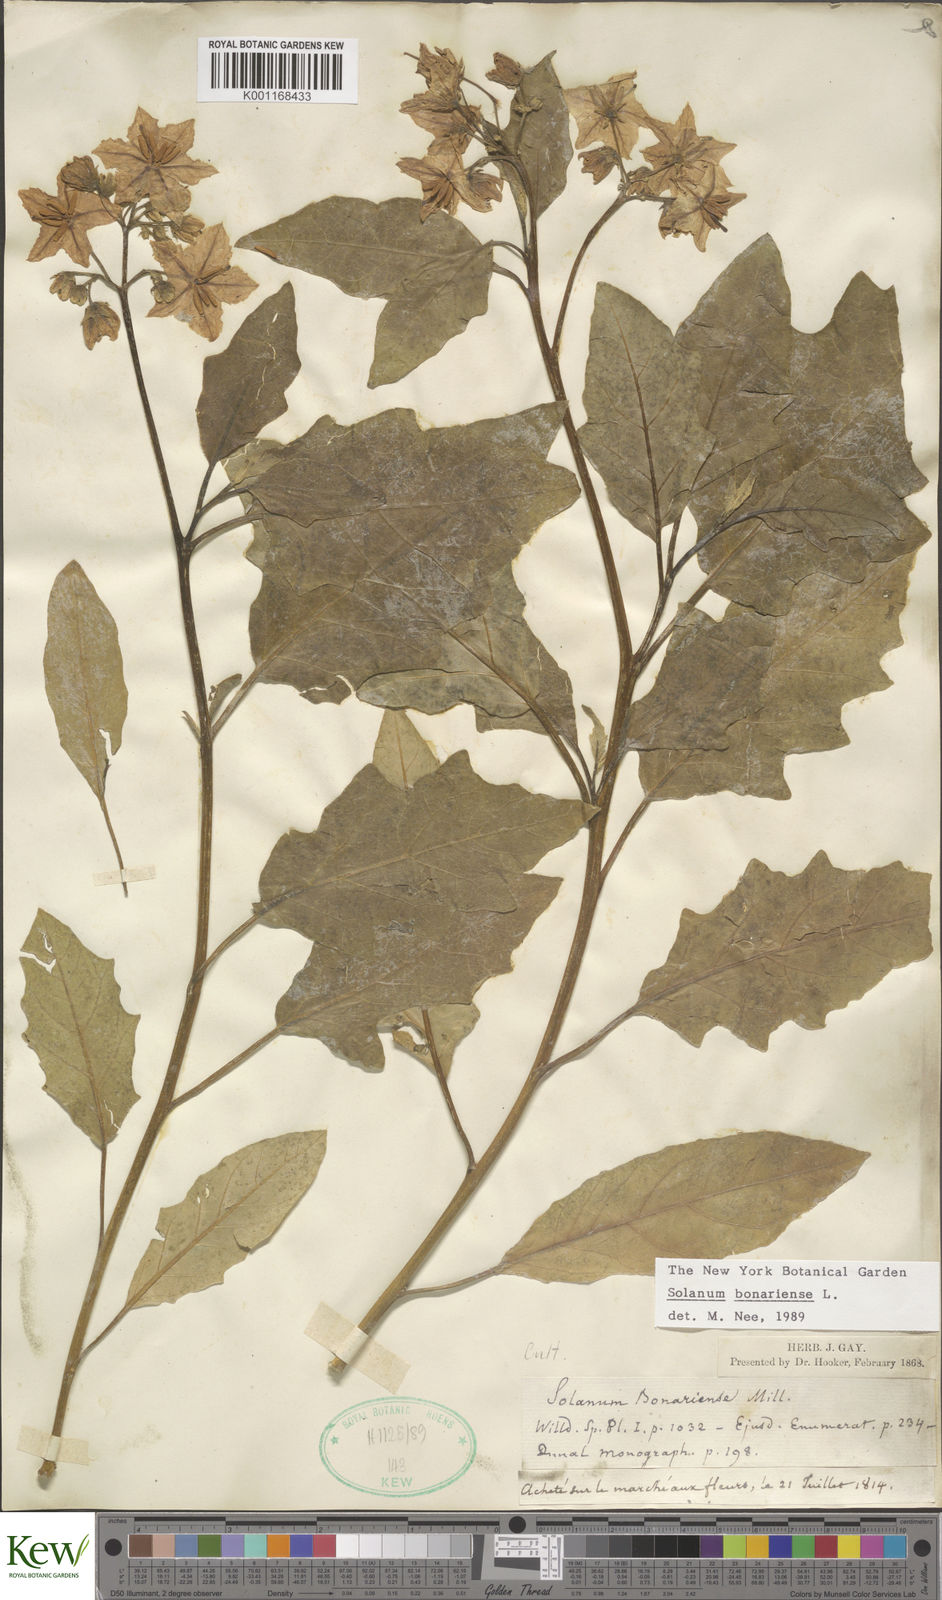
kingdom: Plantae
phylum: Tracheophyta
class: Magnoliopsida
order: Solanales
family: Solanaceae
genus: Solanum
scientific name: Solanum bonariense
